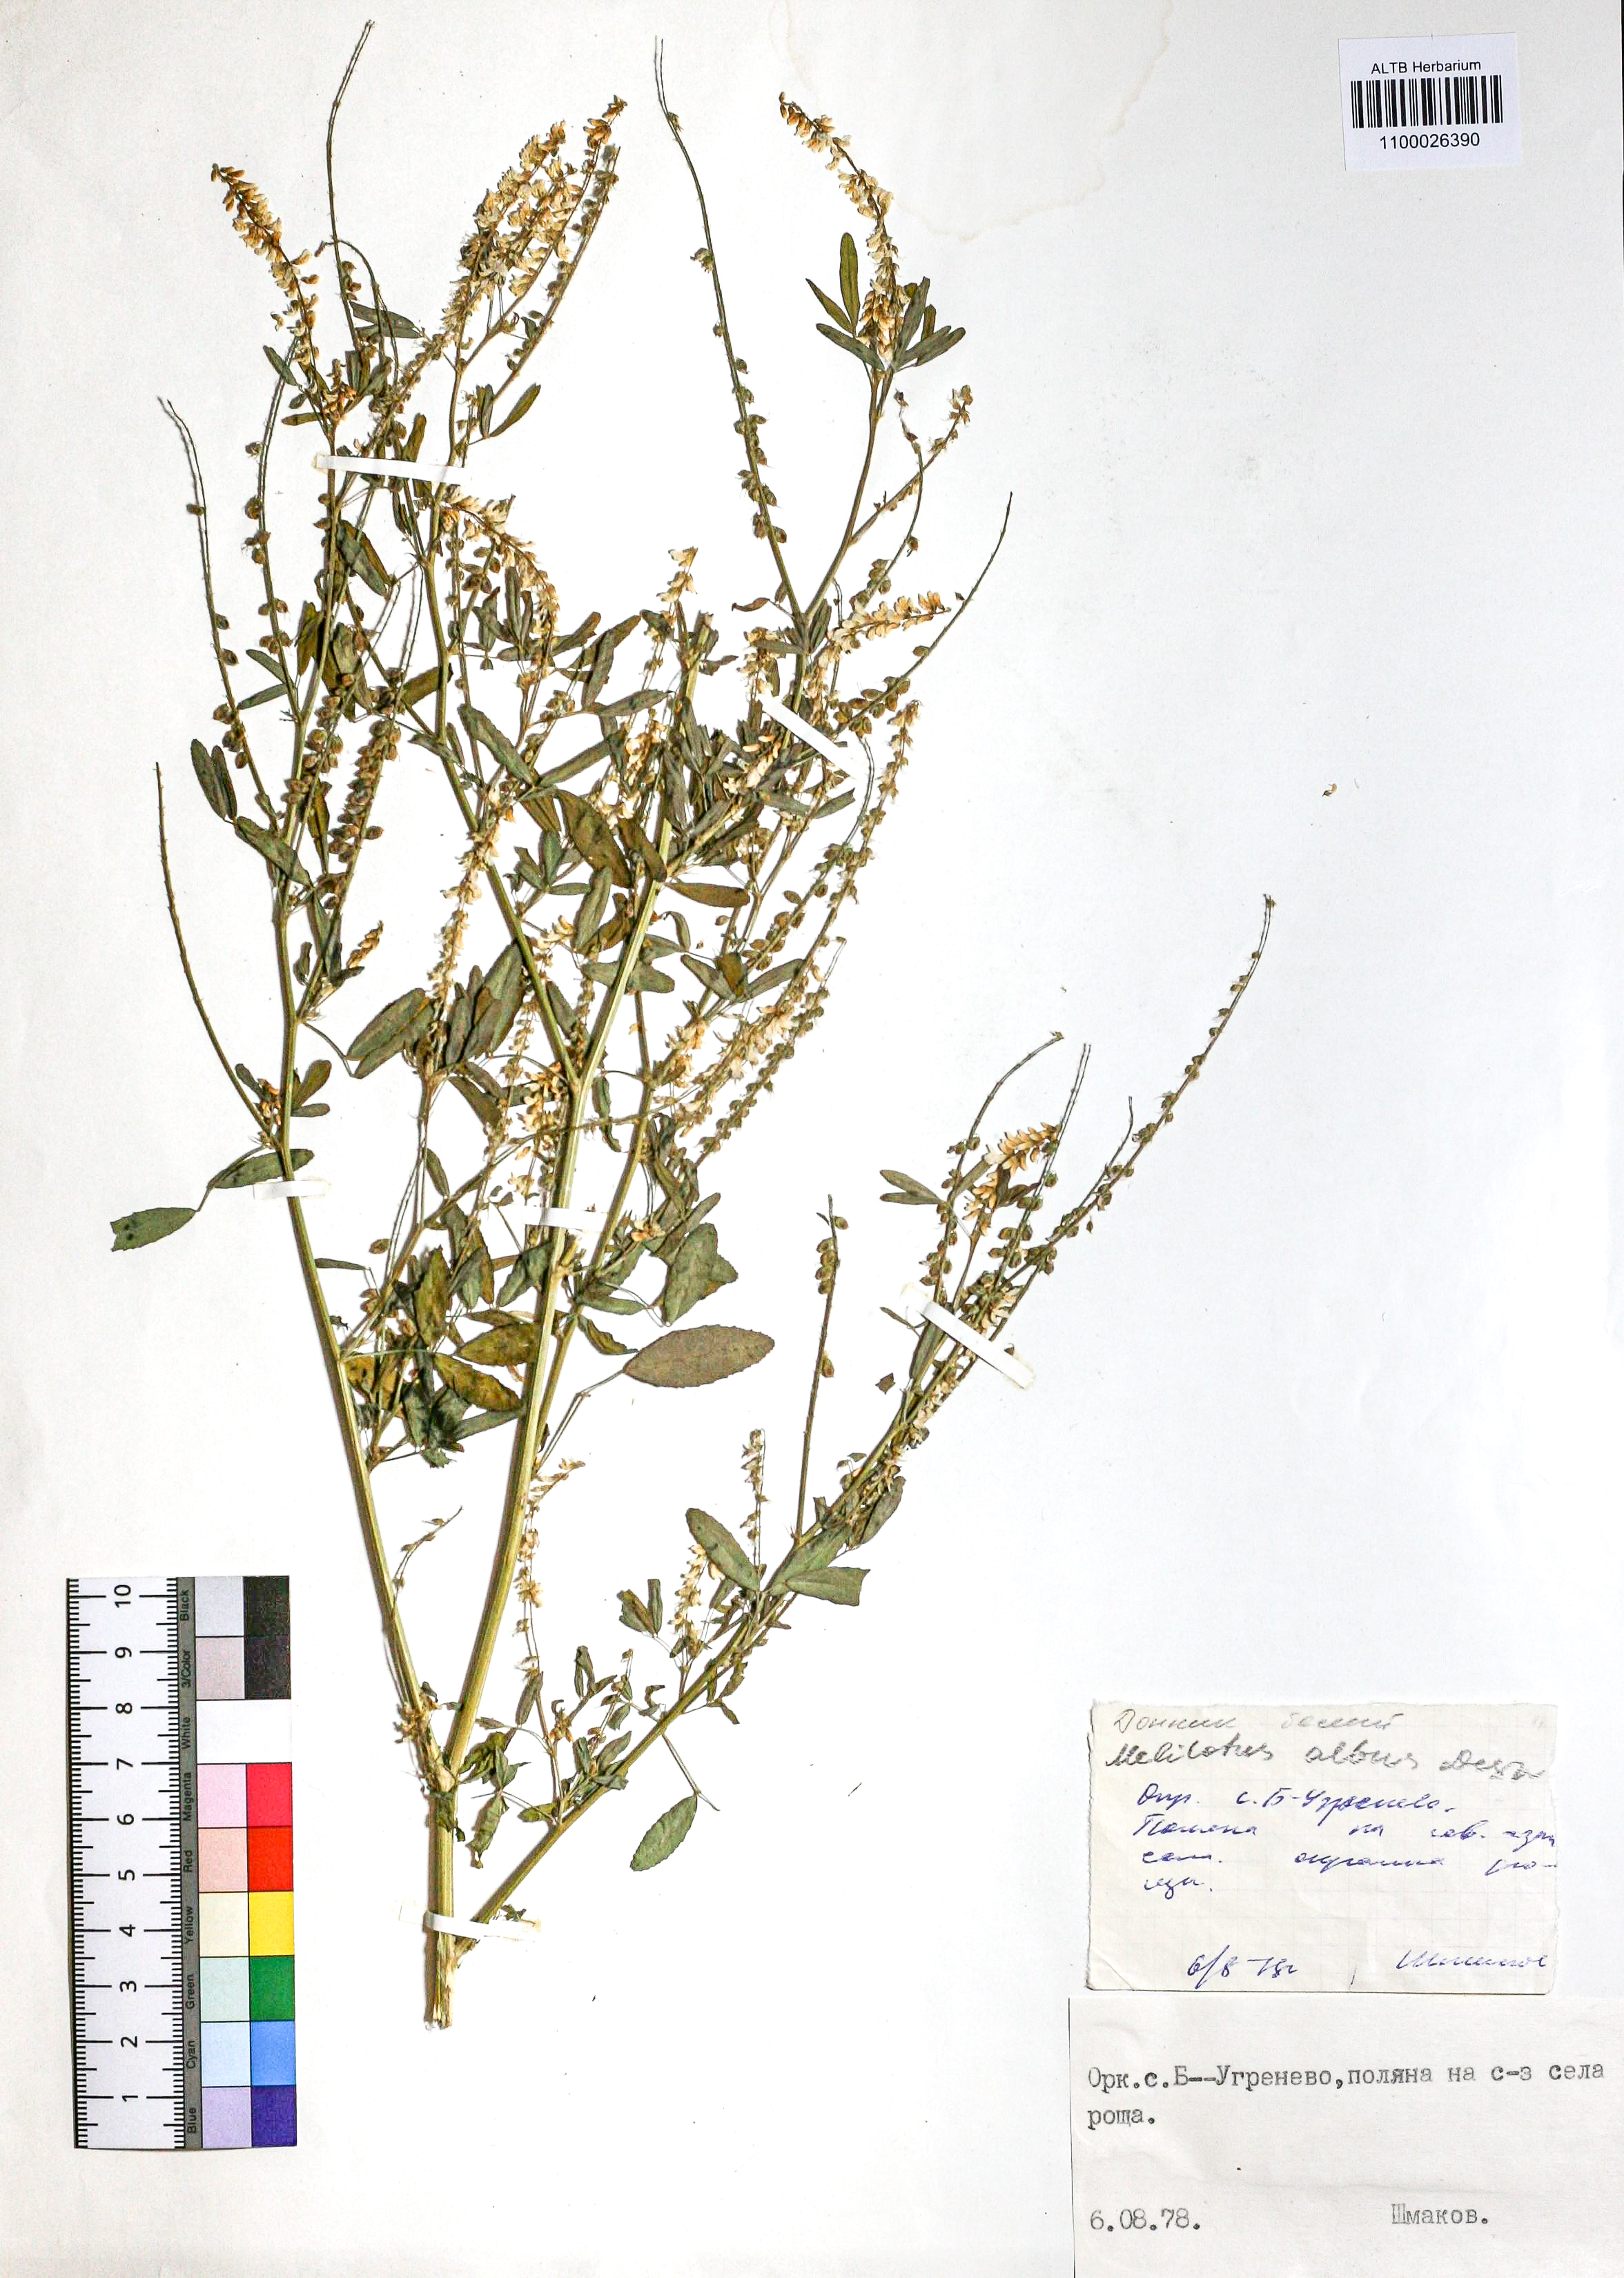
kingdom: Plantae
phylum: Tracheophyta
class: Magnoliopsida
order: Fabales
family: Fabaceae
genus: Melilotus
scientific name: Melilotus albus
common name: White melilot
